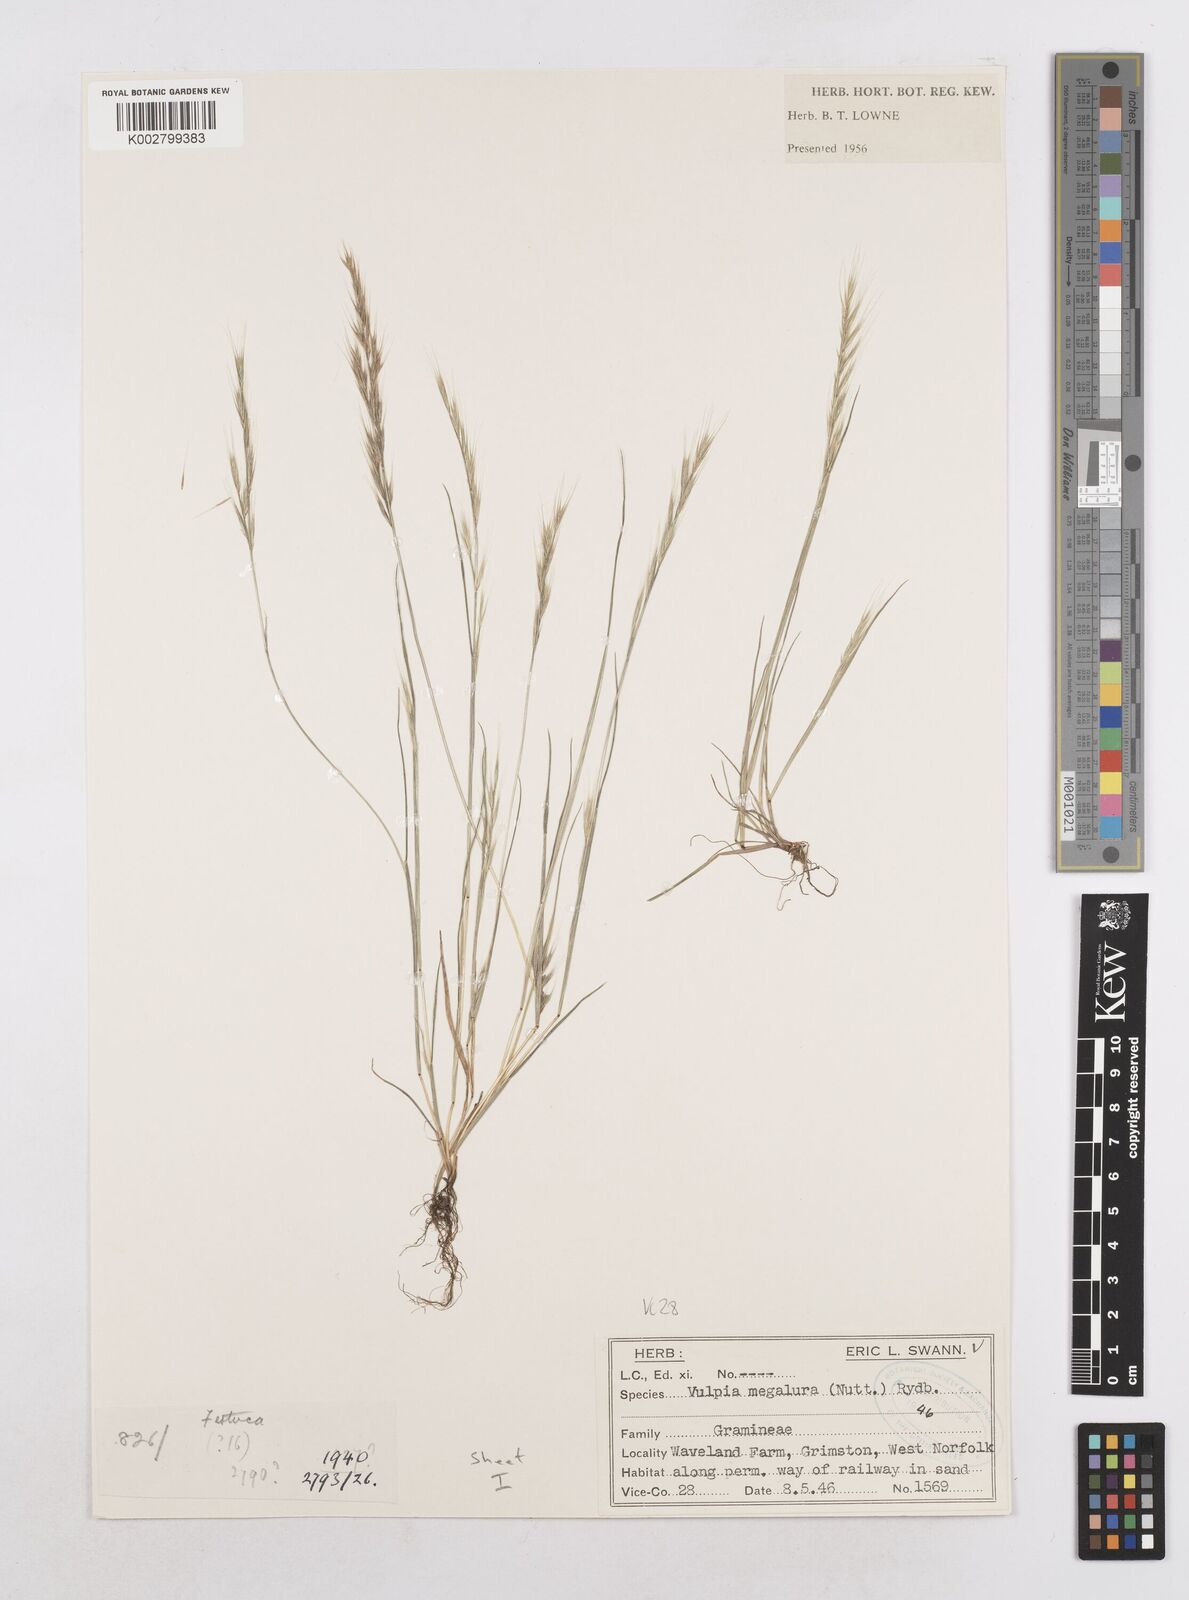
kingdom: Plantae
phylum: Tracheophyta
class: Liliopsida
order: Poales
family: Poaceae
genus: Festuca
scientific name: Festuca myuros
